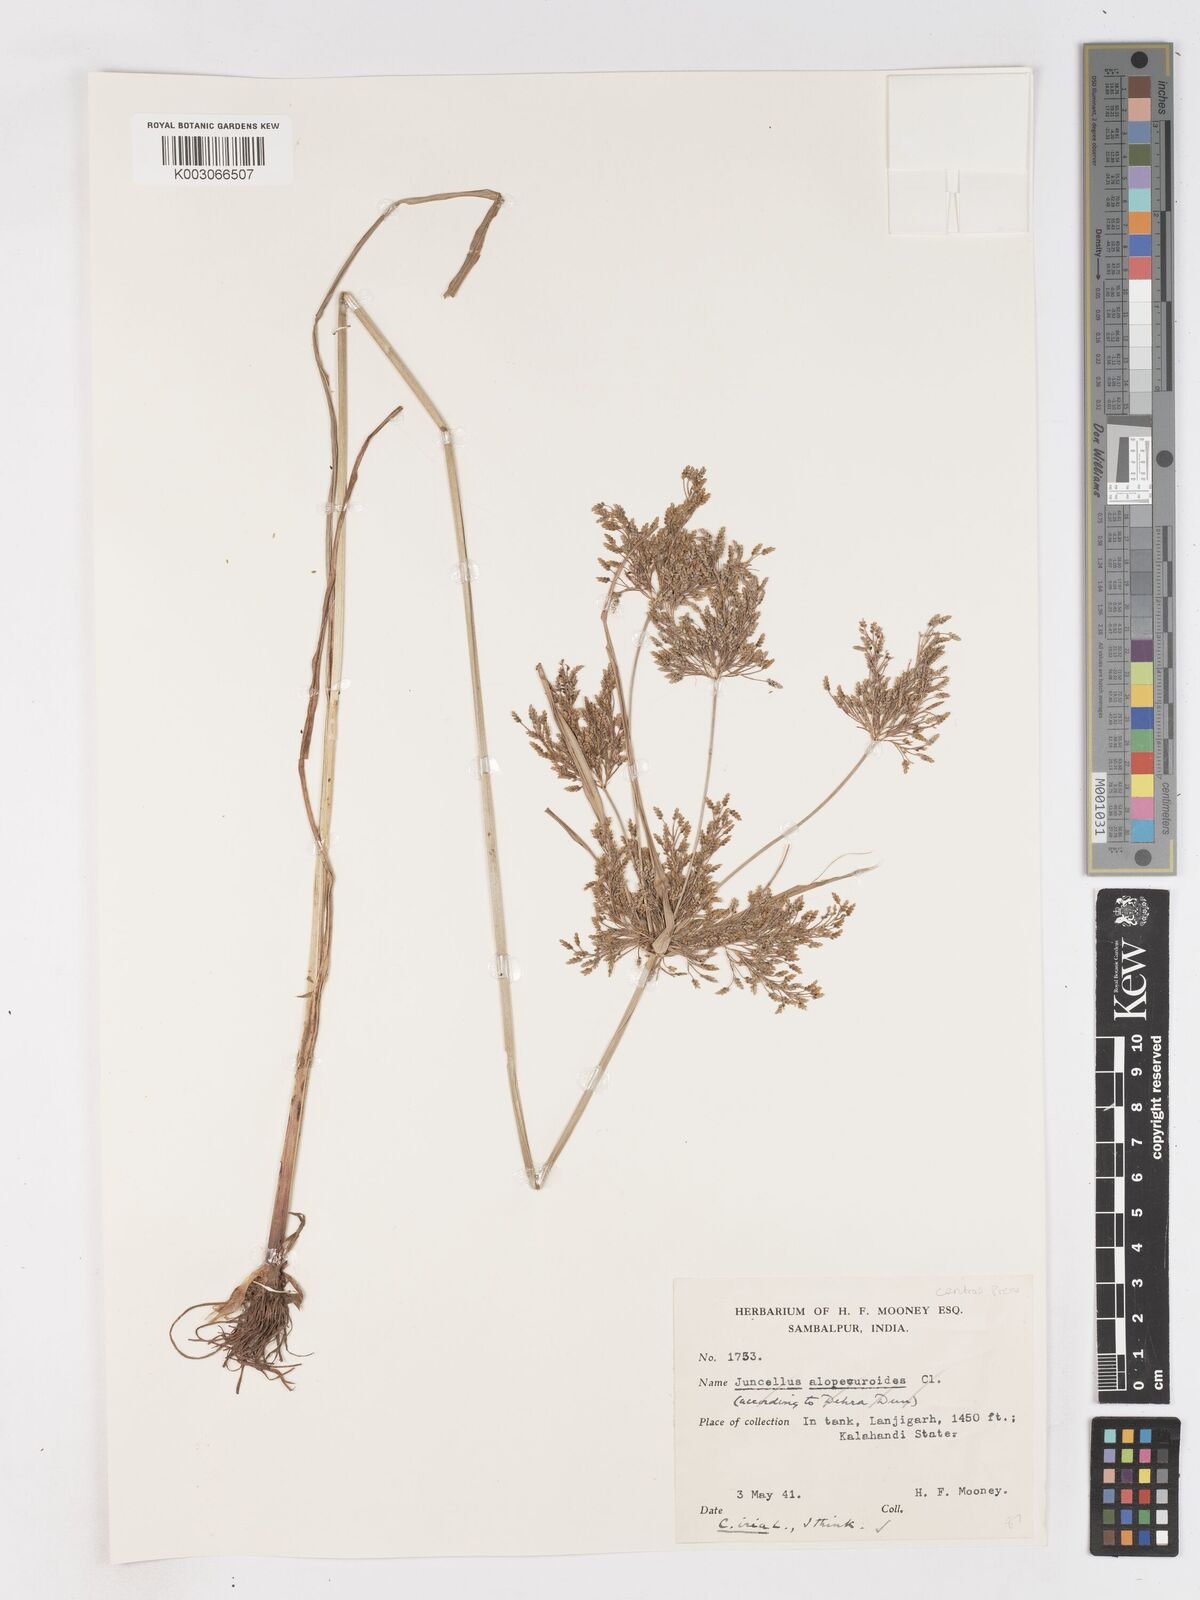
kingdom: Plantae
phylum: Tracheophyta
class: Liliopsida
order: Poales
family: Cyperaceae
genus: Cyperus
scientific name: Cyperus iria
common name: Ricefield flatsedge
